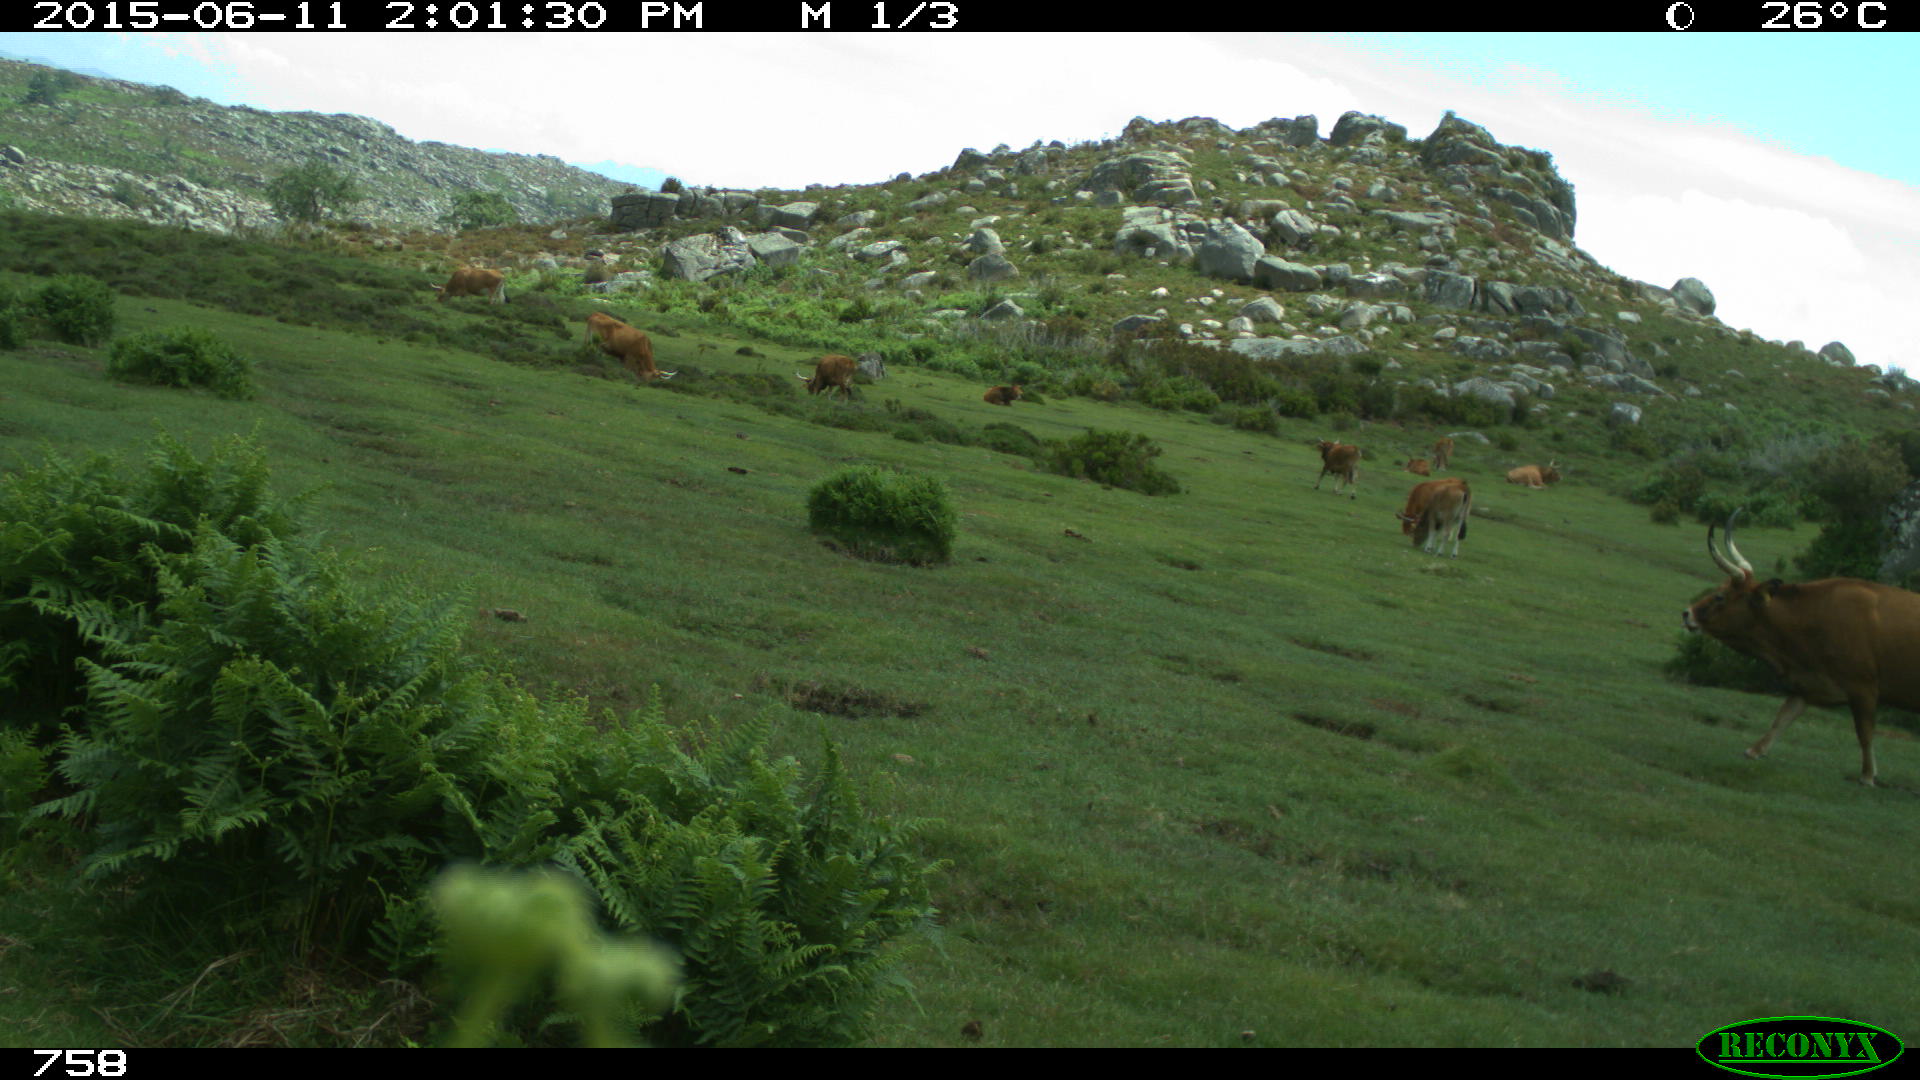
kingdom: Animalia
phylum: Chordata
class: Mammalia
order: Artiodactyla
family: Bovidae
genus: Bos
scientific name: Bos taurus
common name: Domesticated cattle
